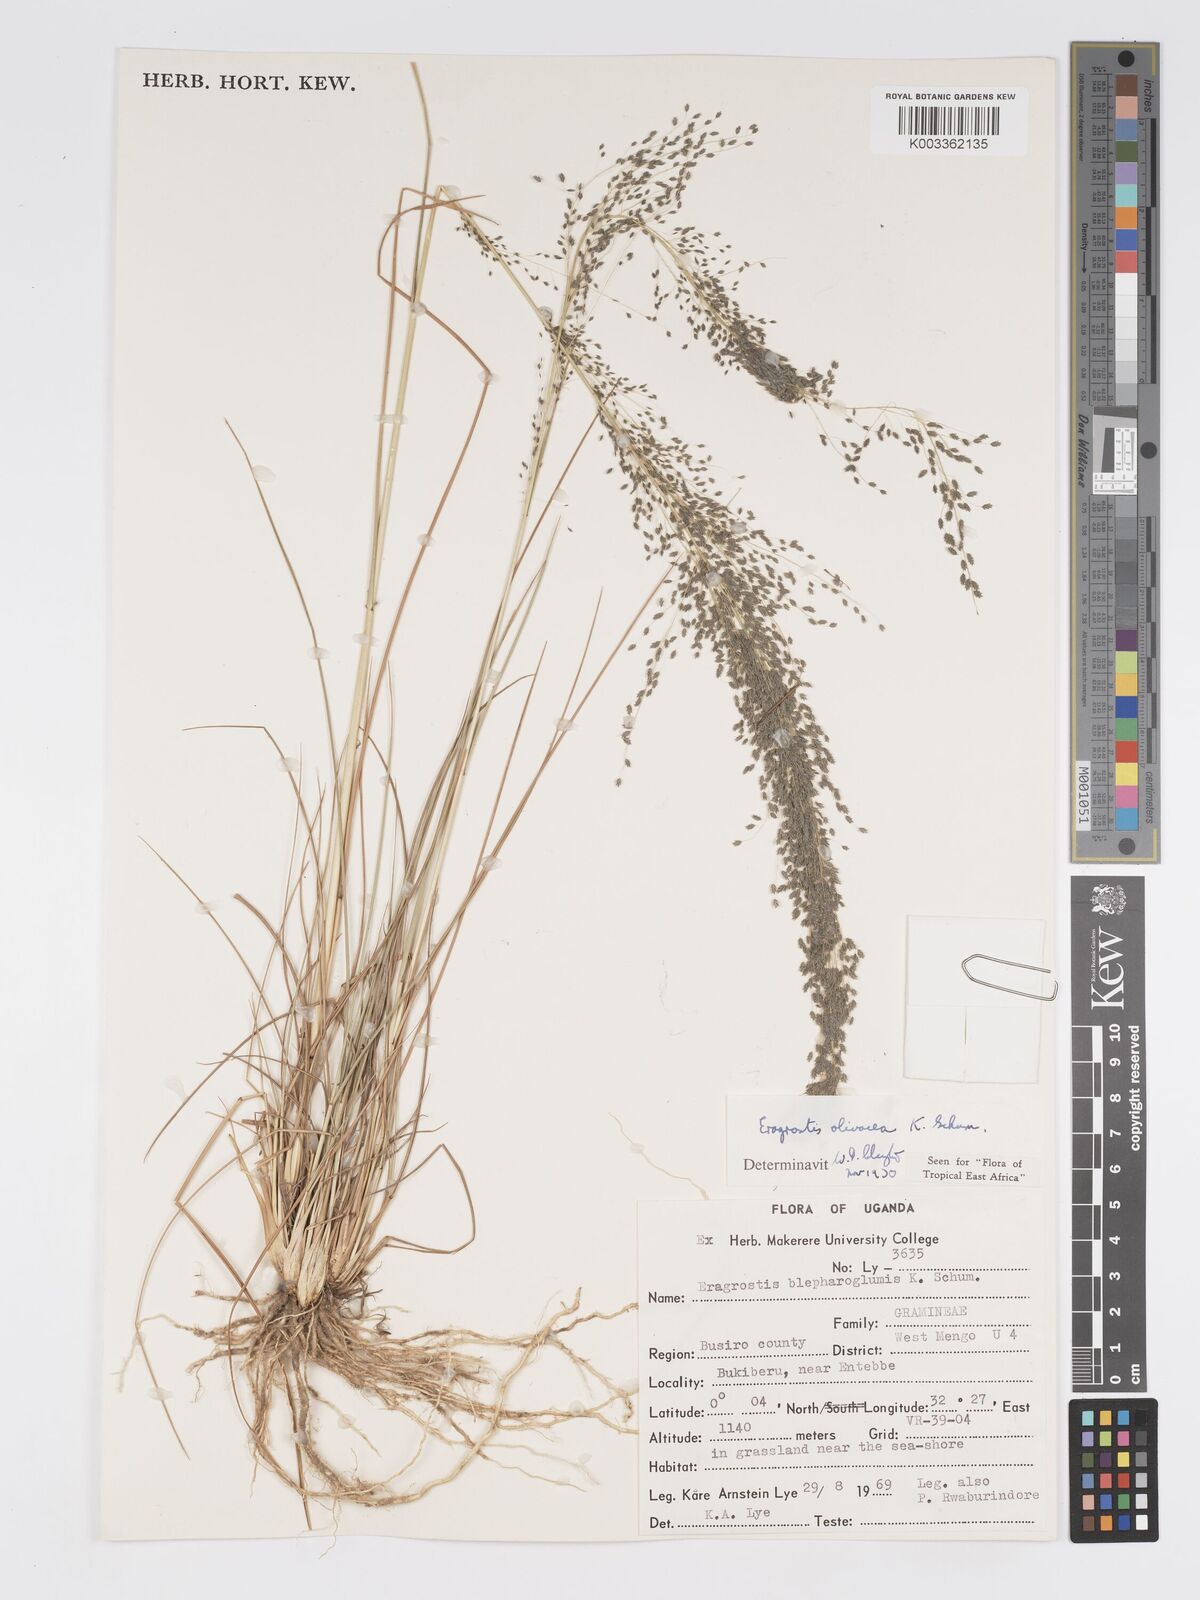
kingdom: Plantae
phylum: Tracheophyta
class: Liliopsida
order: Poales
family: Poaceae
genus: Eragrostis
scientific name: Eragrostis olivacea
